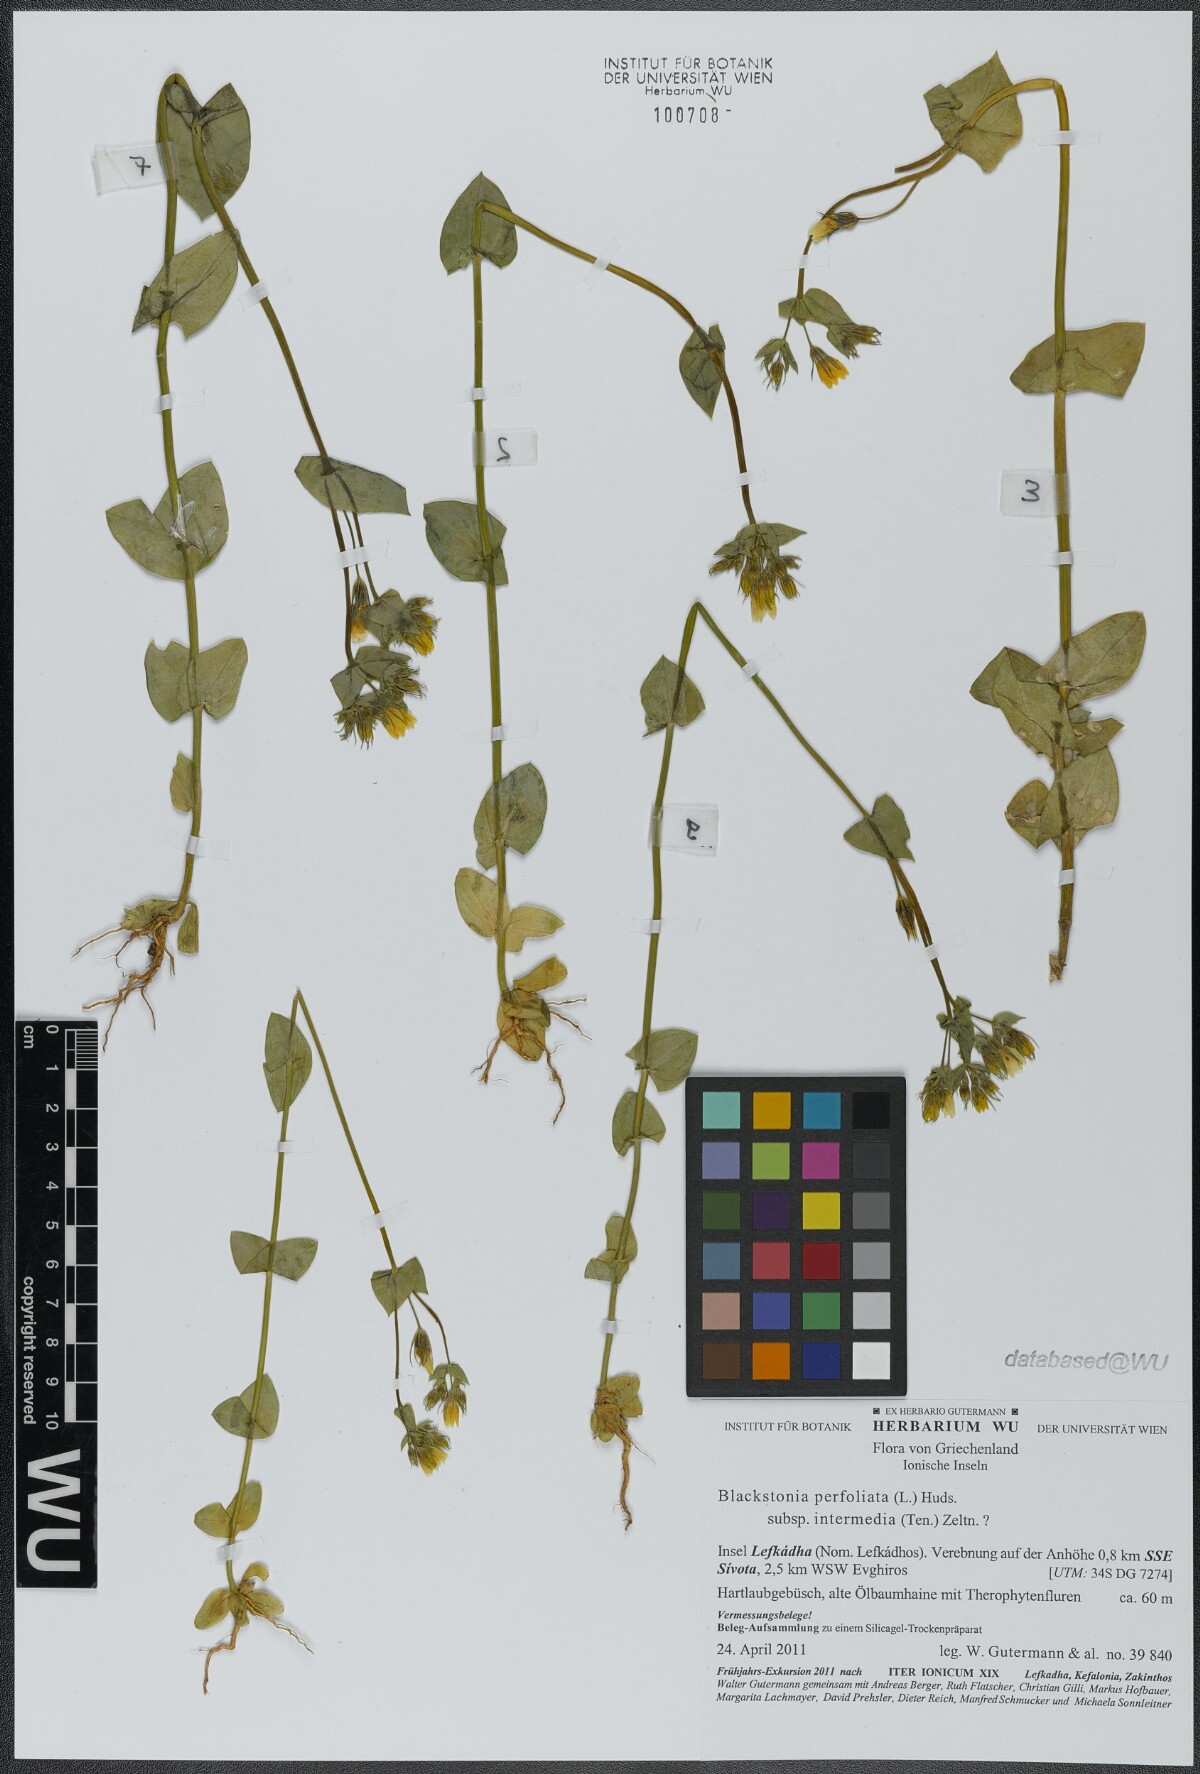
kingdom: Plantae
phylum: Tracheophyta
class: Magnoliopsida
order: Gentianales
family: Gentianaceae
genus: Blackstonia
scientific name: Blackstonia perfoliata
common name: Yellow-wort
